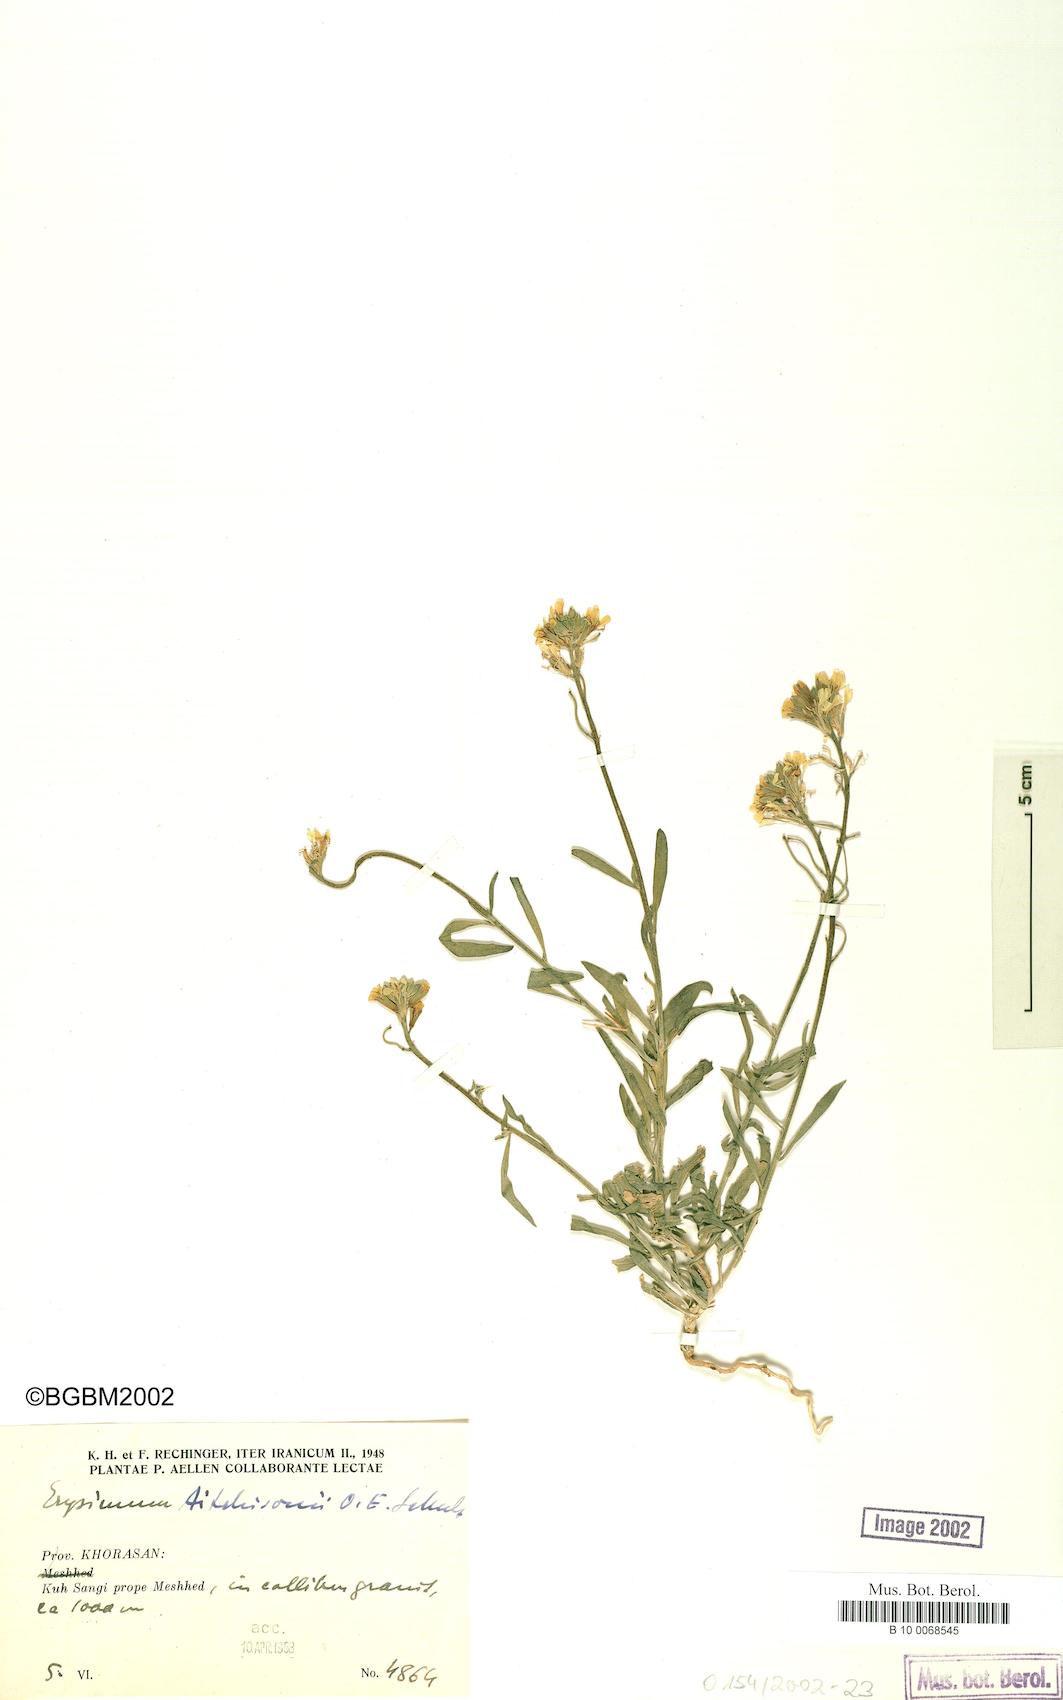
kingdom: Plantae
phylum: Tracheophyta
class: Magnoliopsida
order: Brassicales
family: Brassicaceae
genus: Erysimum
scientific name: Erysimum aitchisonii
